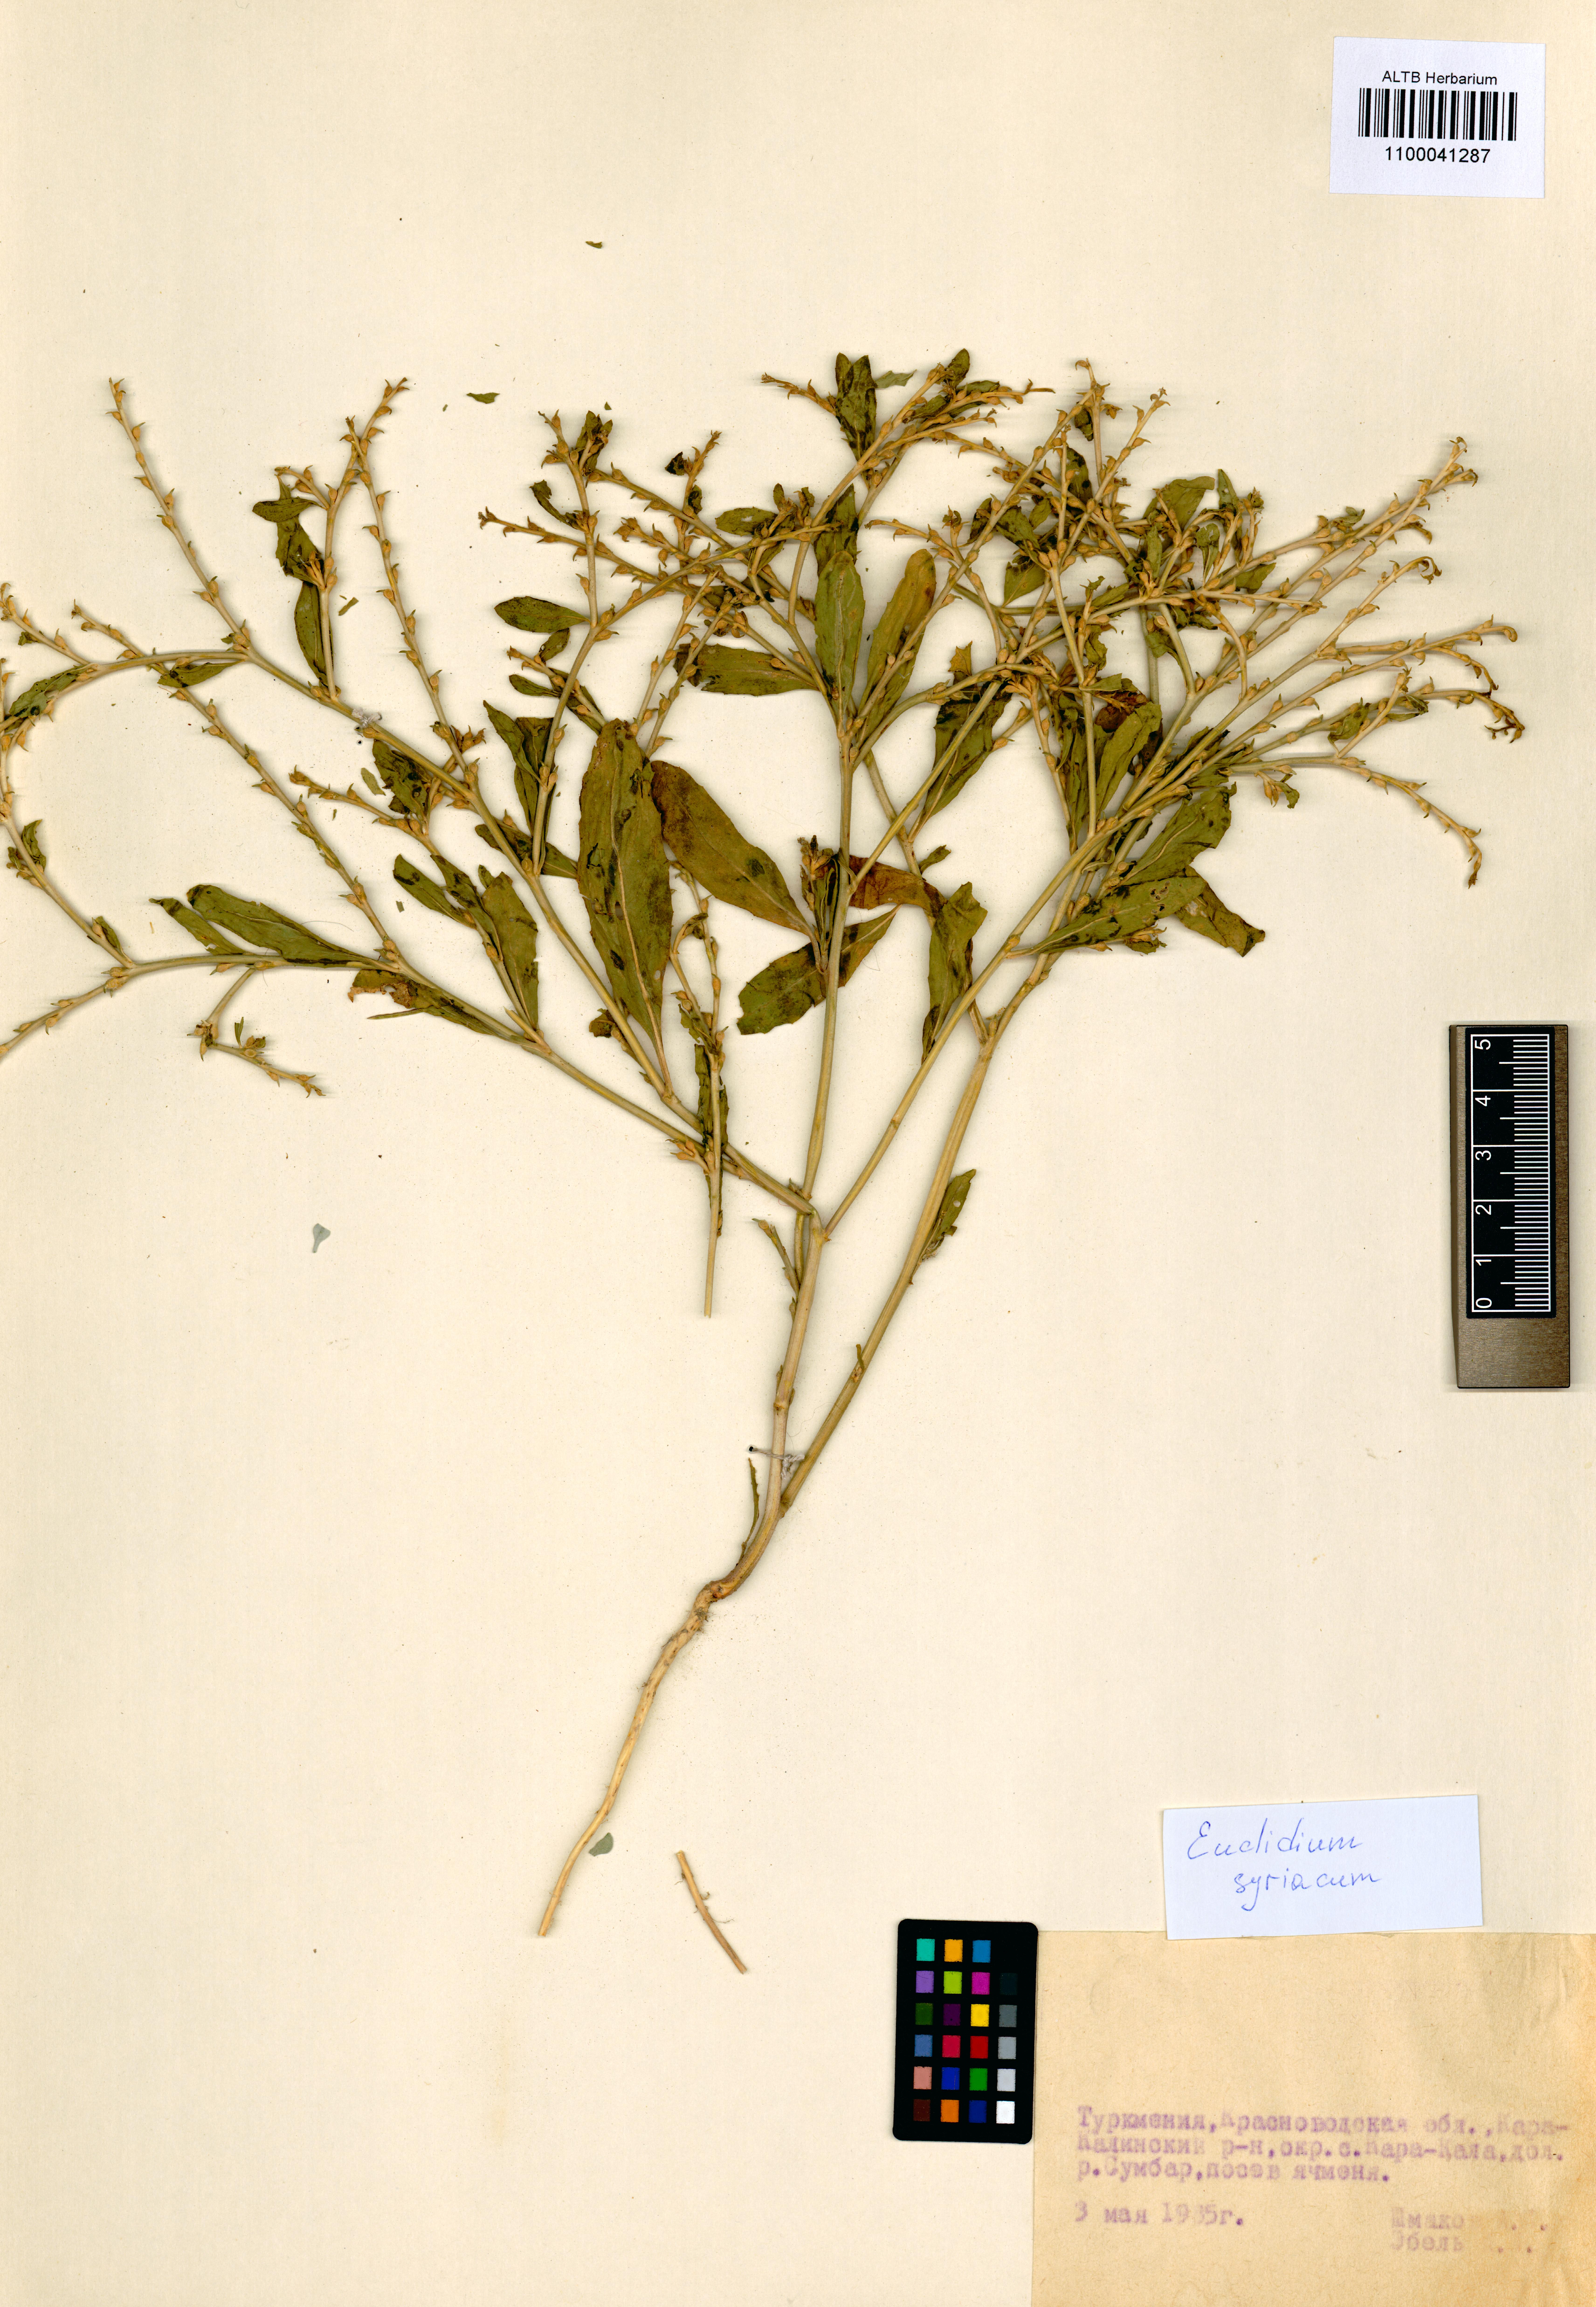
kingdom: Plantae
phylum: Tracheophyta
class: Magnoliopsida
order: Brassicales
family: Brassicaceae
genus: Euclidium
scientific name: Euclidium syriacum
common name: Syrian mustard
